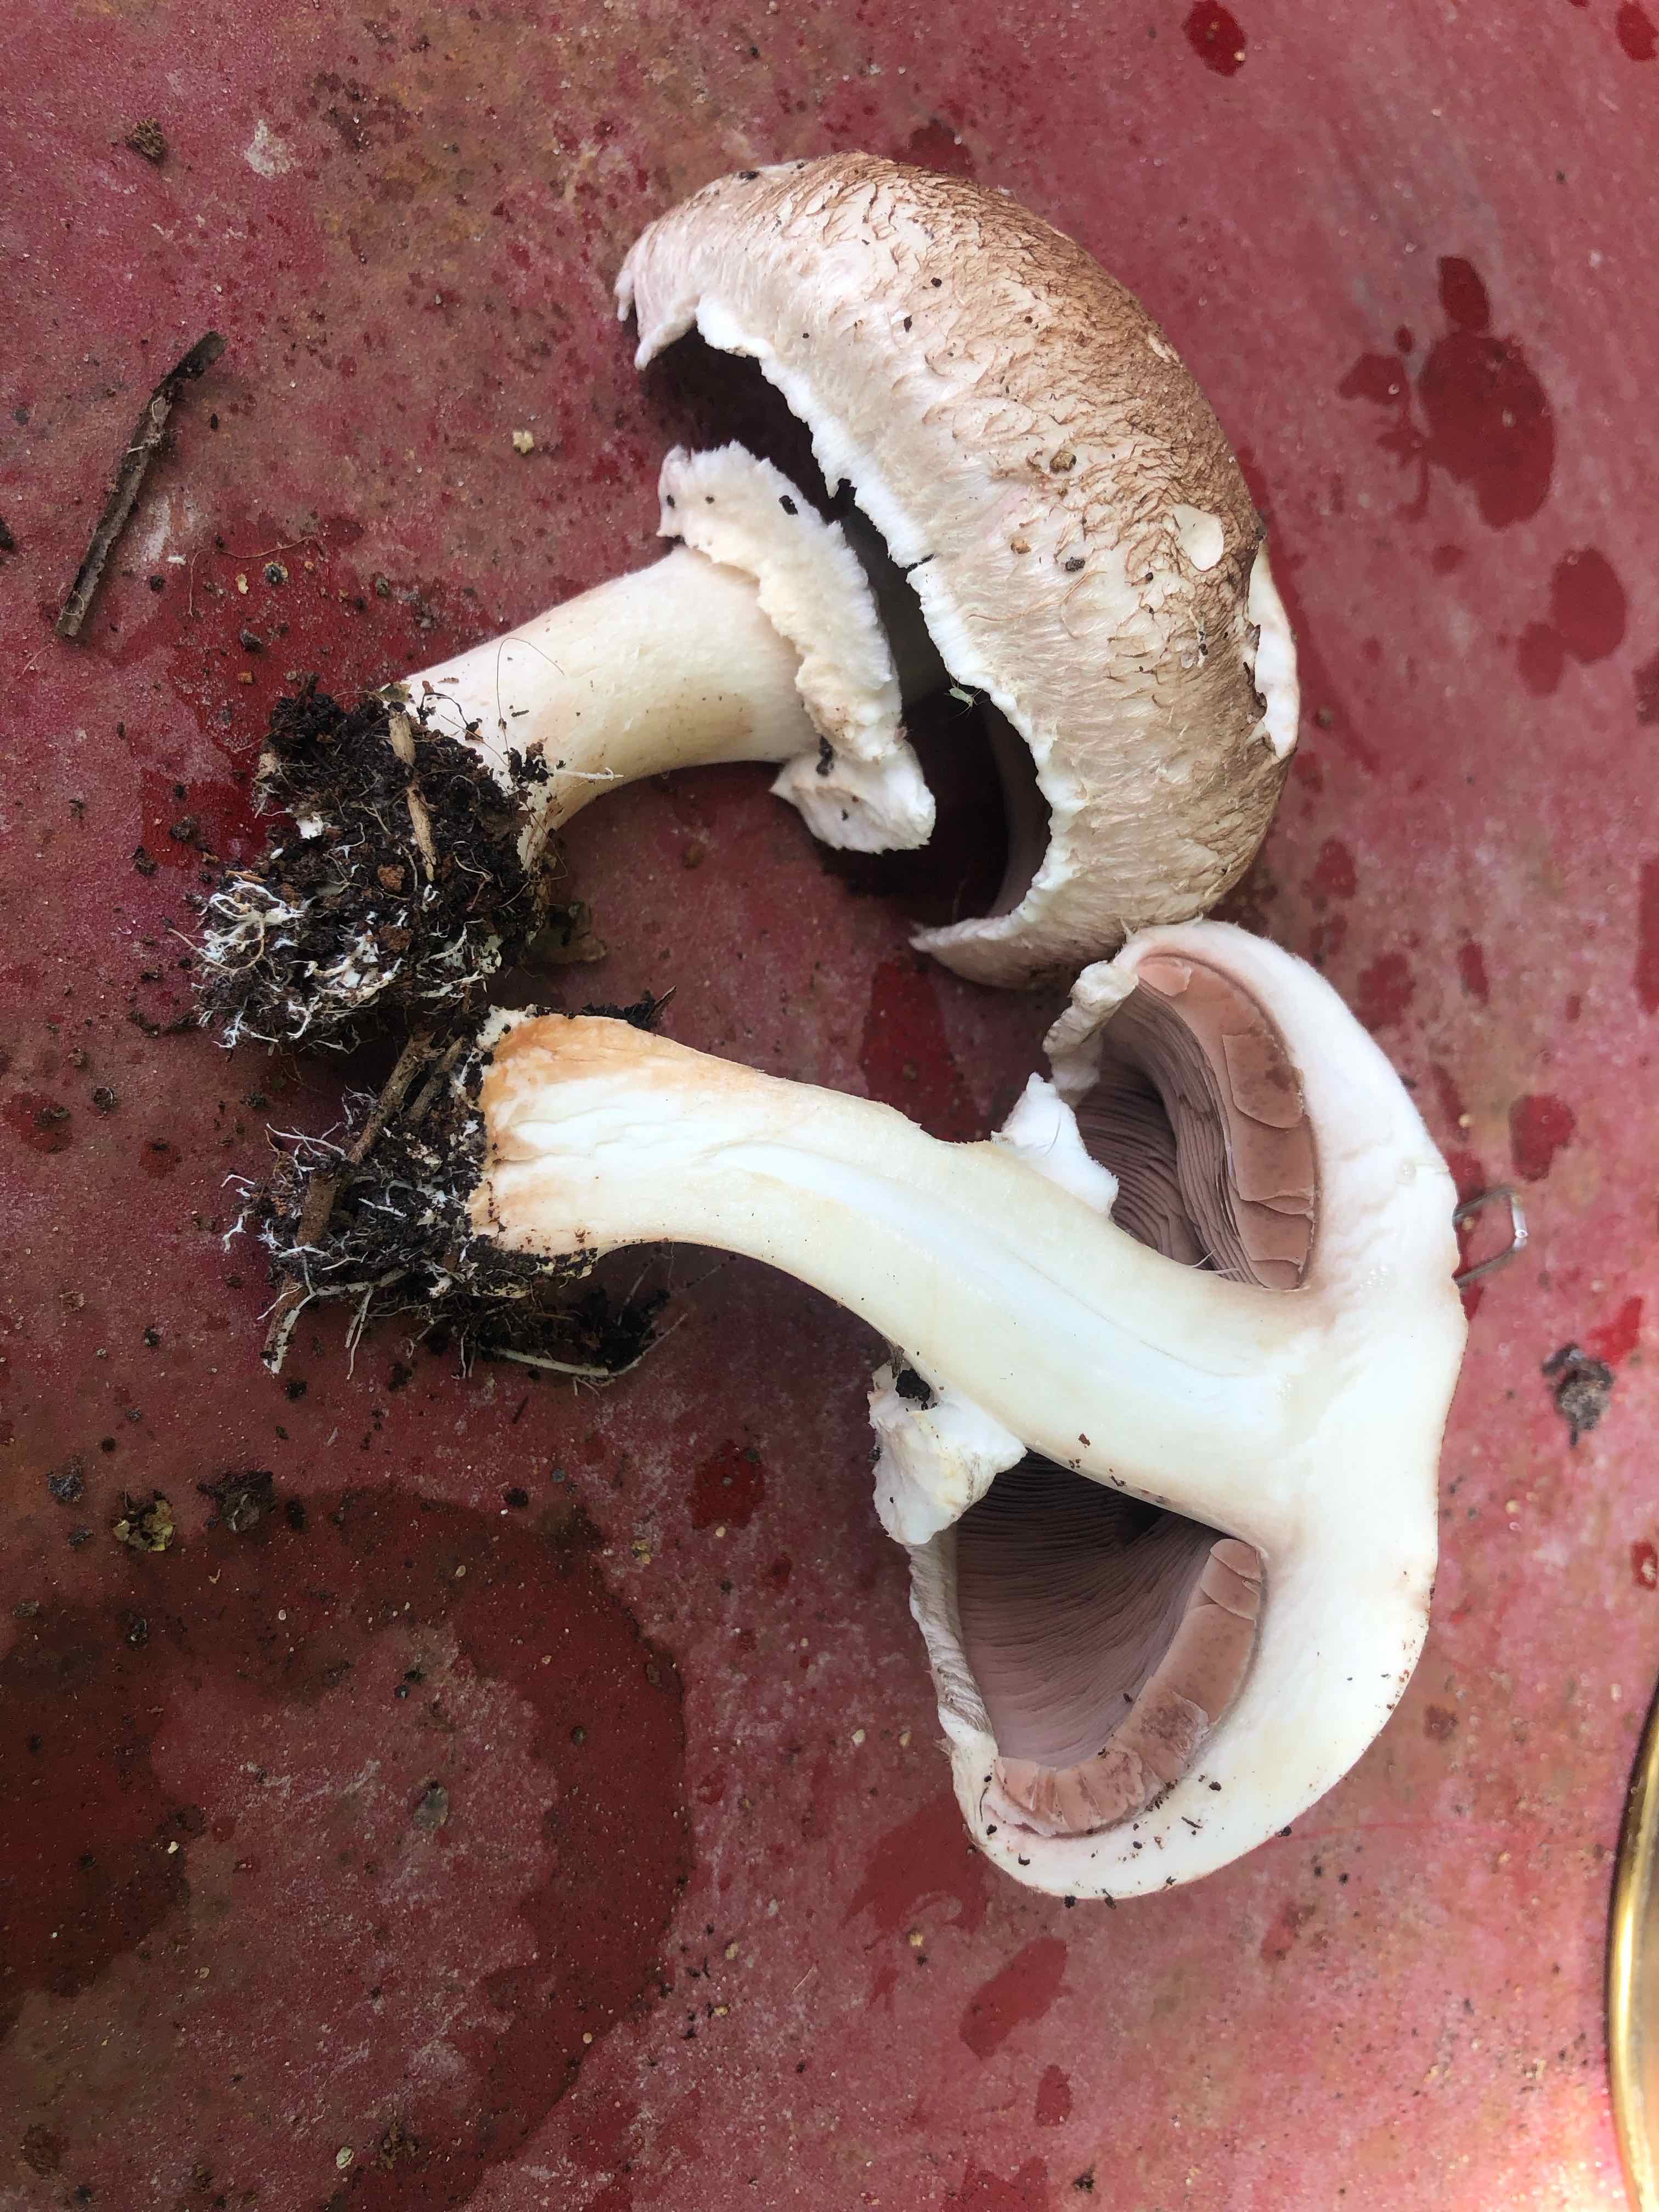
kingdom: Fungi
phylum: Basidiomycota
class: Agaricomycetes
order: Agaricales
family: Agaricaceae
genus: Agaricus
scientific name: Agaricus bisporus
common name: have-champignon
